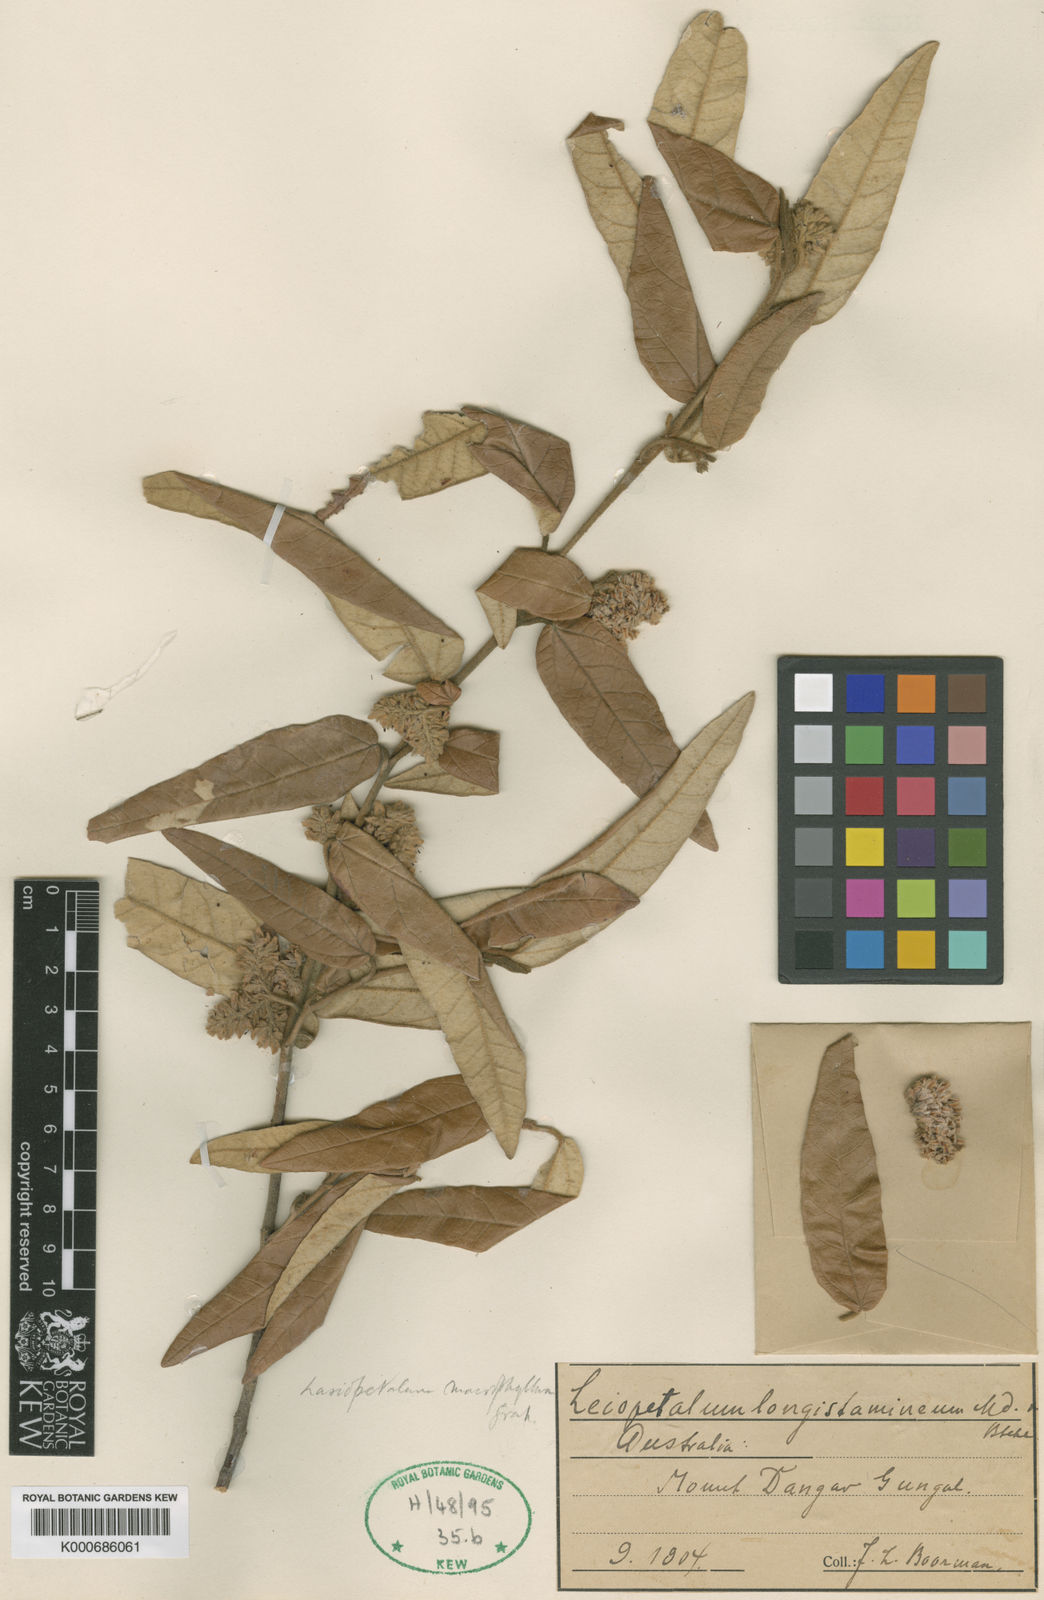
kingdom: Plantae
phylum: Tracheophyta
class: Magnoliopsida
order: Malvales
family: Malvaceae
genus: Lasiopetalum
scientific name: Lasiopetalum longistamineum
